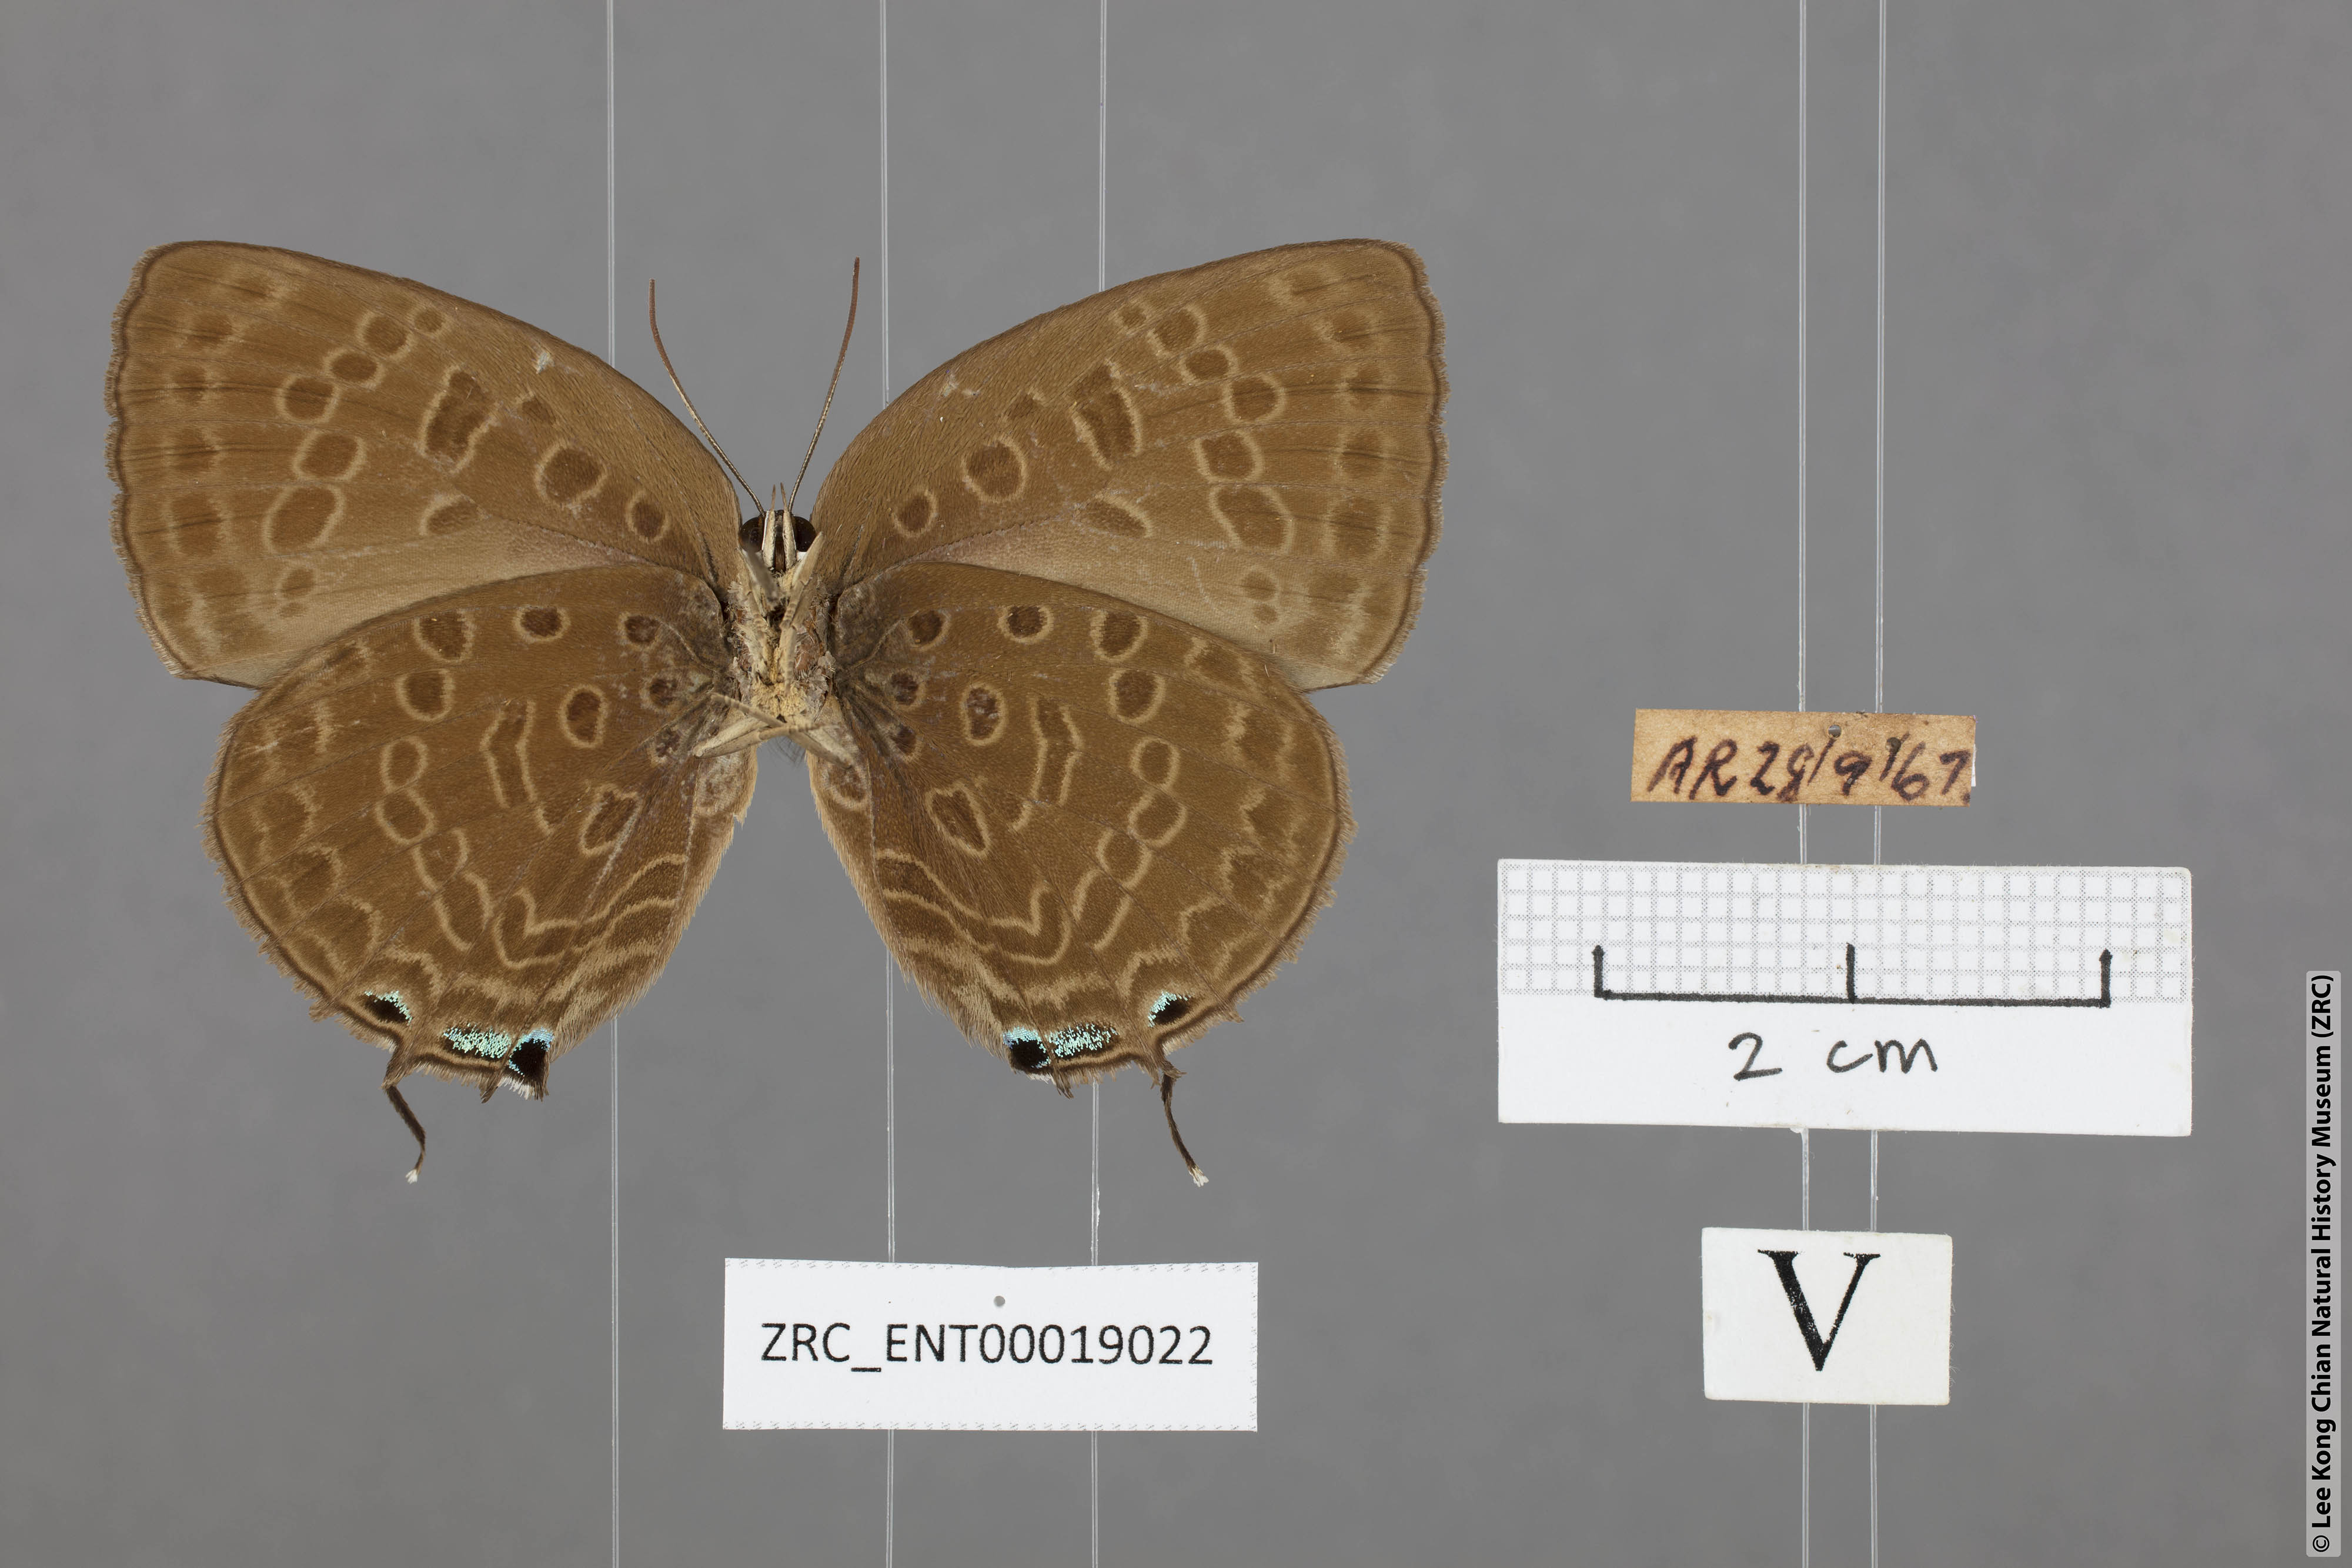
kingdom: Animalia
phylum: Arthropoda
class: Insecta
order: Lepidoptera
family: Lycaenidae
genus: Arhopala
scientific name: Arhopala aedias
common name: Large metallic oakblue
